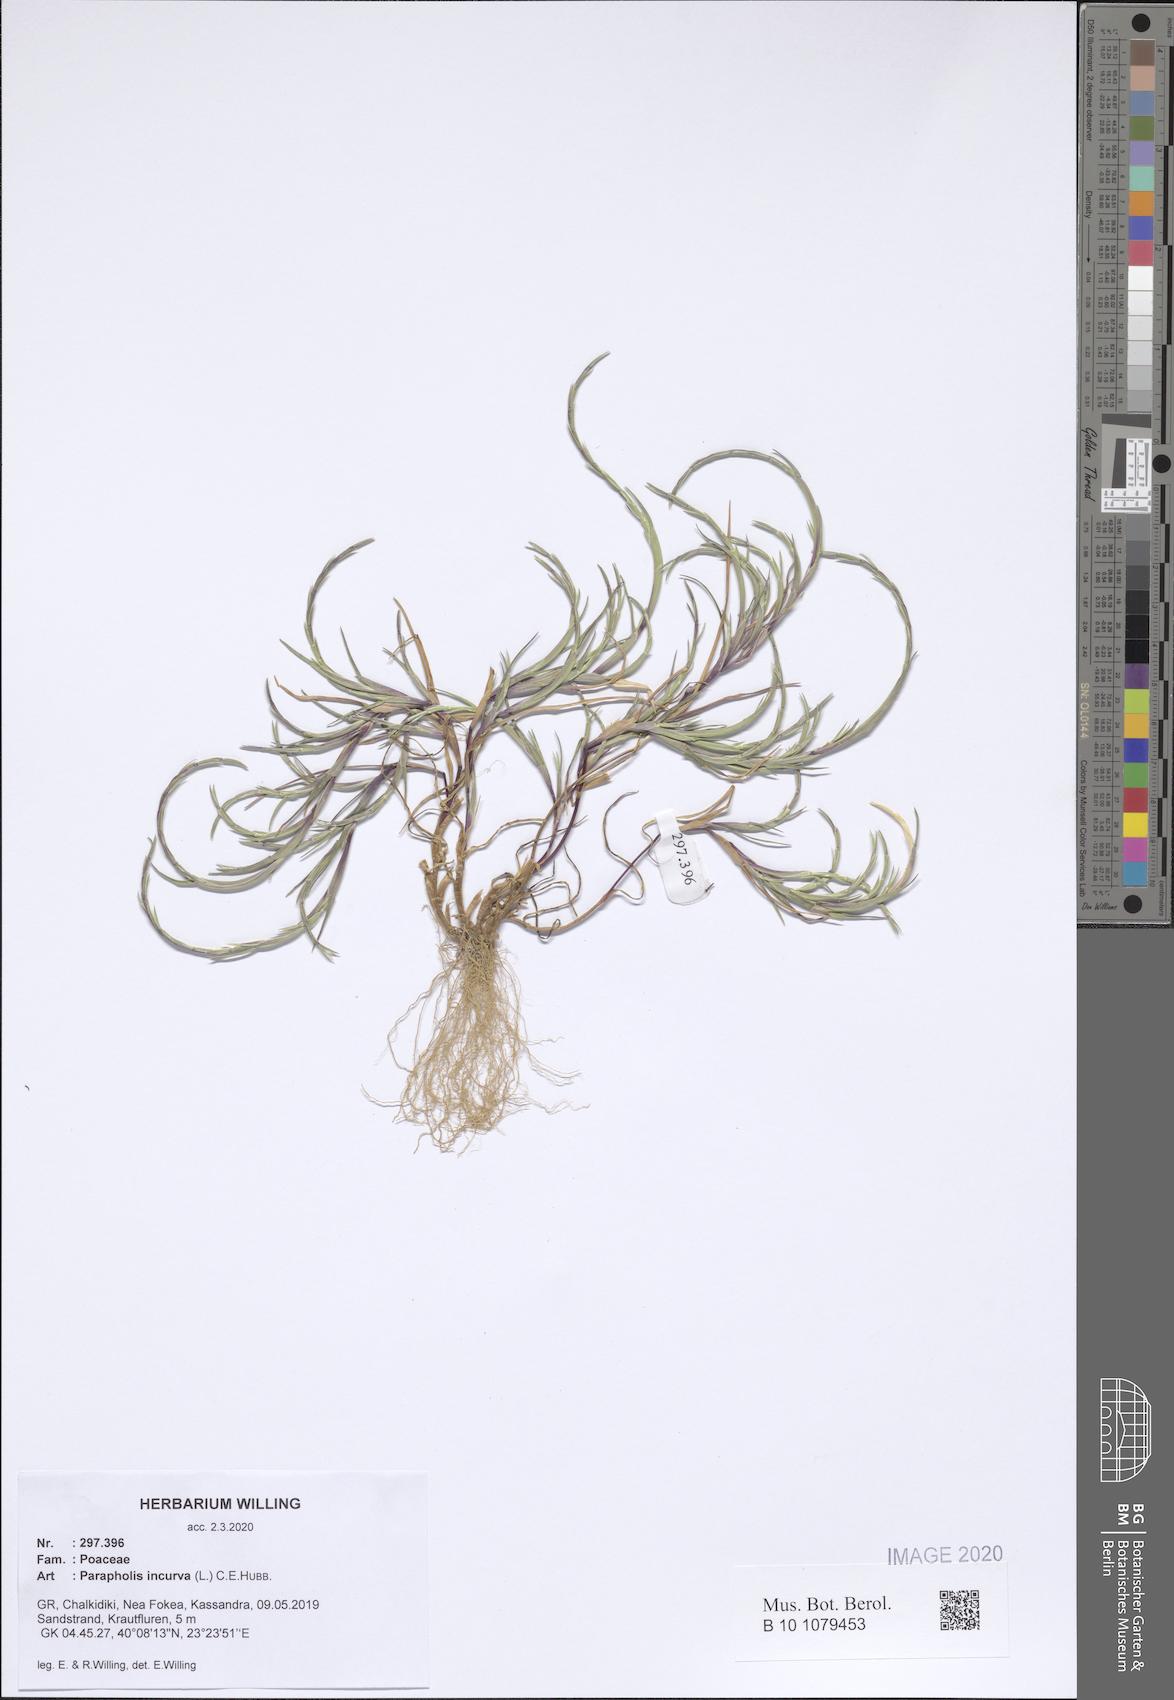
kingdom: Plantae
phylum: Tracheophyta
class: Liliopsida
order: Poales
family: Poaceae
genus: Parapholis
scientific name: Parapholis incurva
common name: Curved sicklegrass
